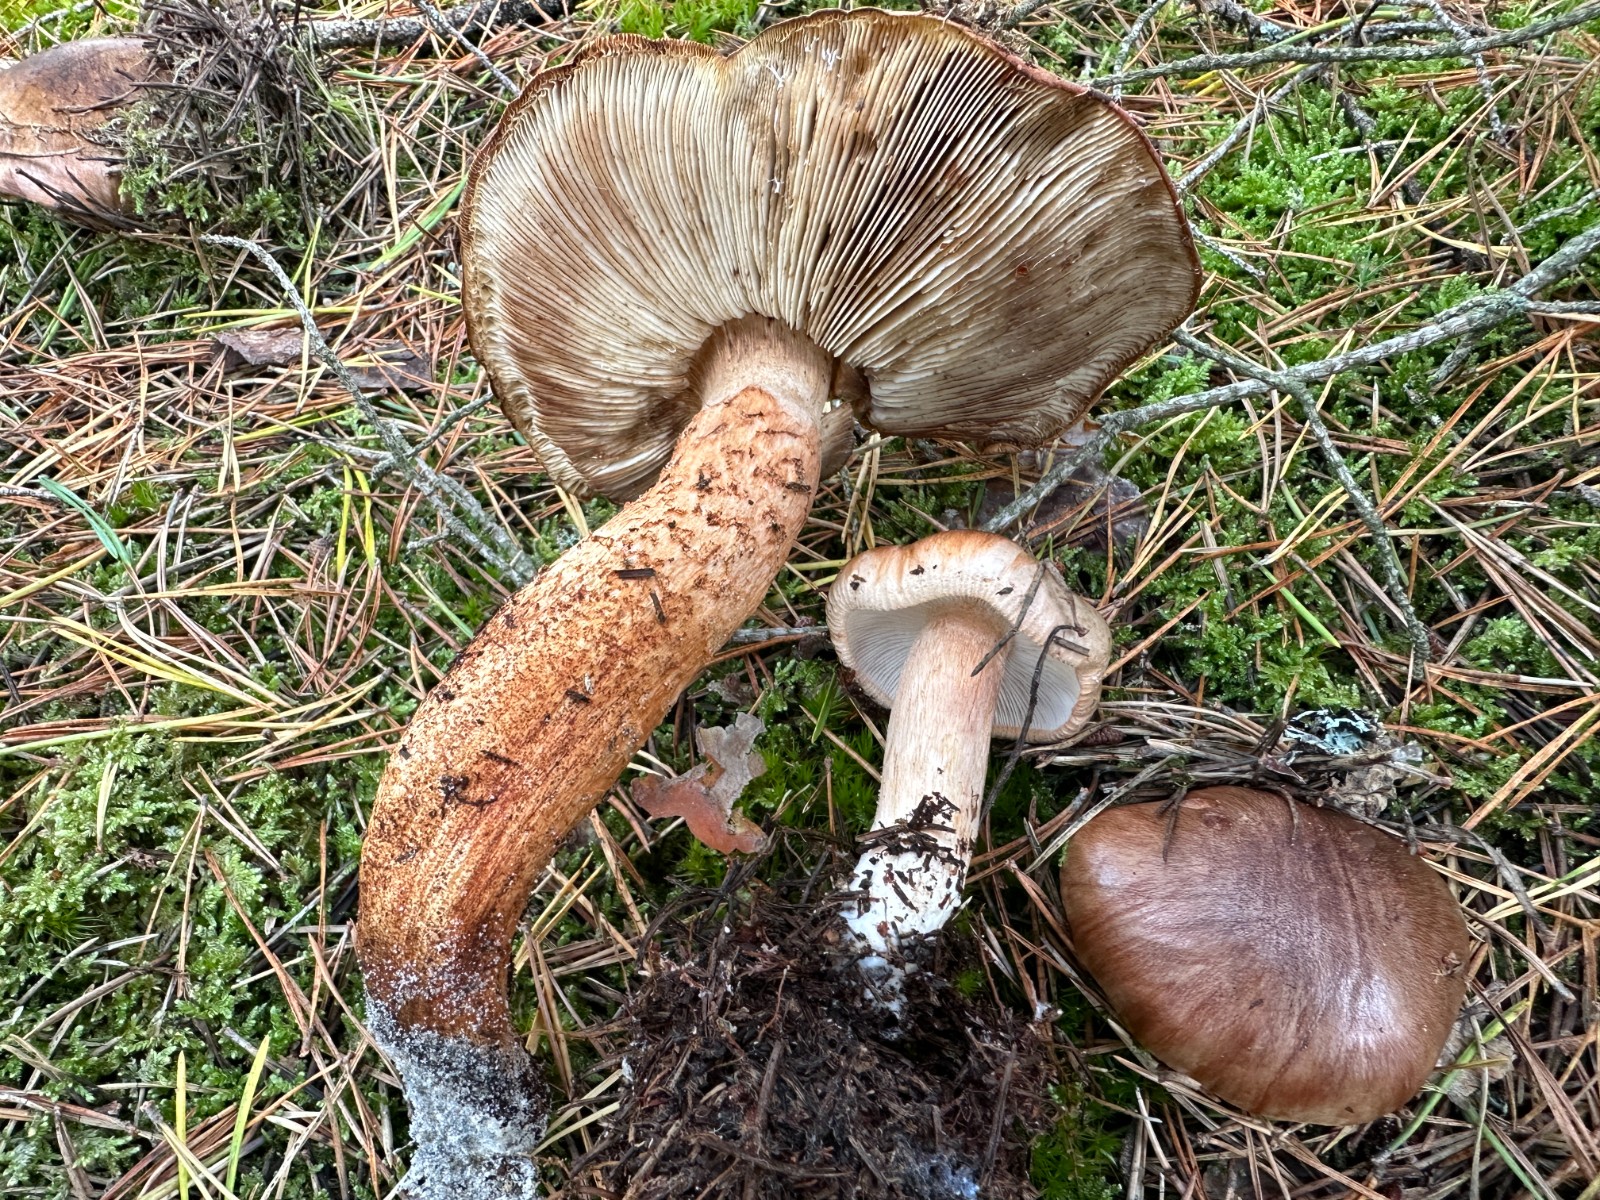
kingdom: Fungi
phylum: Basidiomycota
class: Agaricomycetes
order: Agaricales
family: Tricholomataceae
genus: Tricholoma
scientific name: Tricholoma albobrunneum
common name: kastanie-ridderhat
